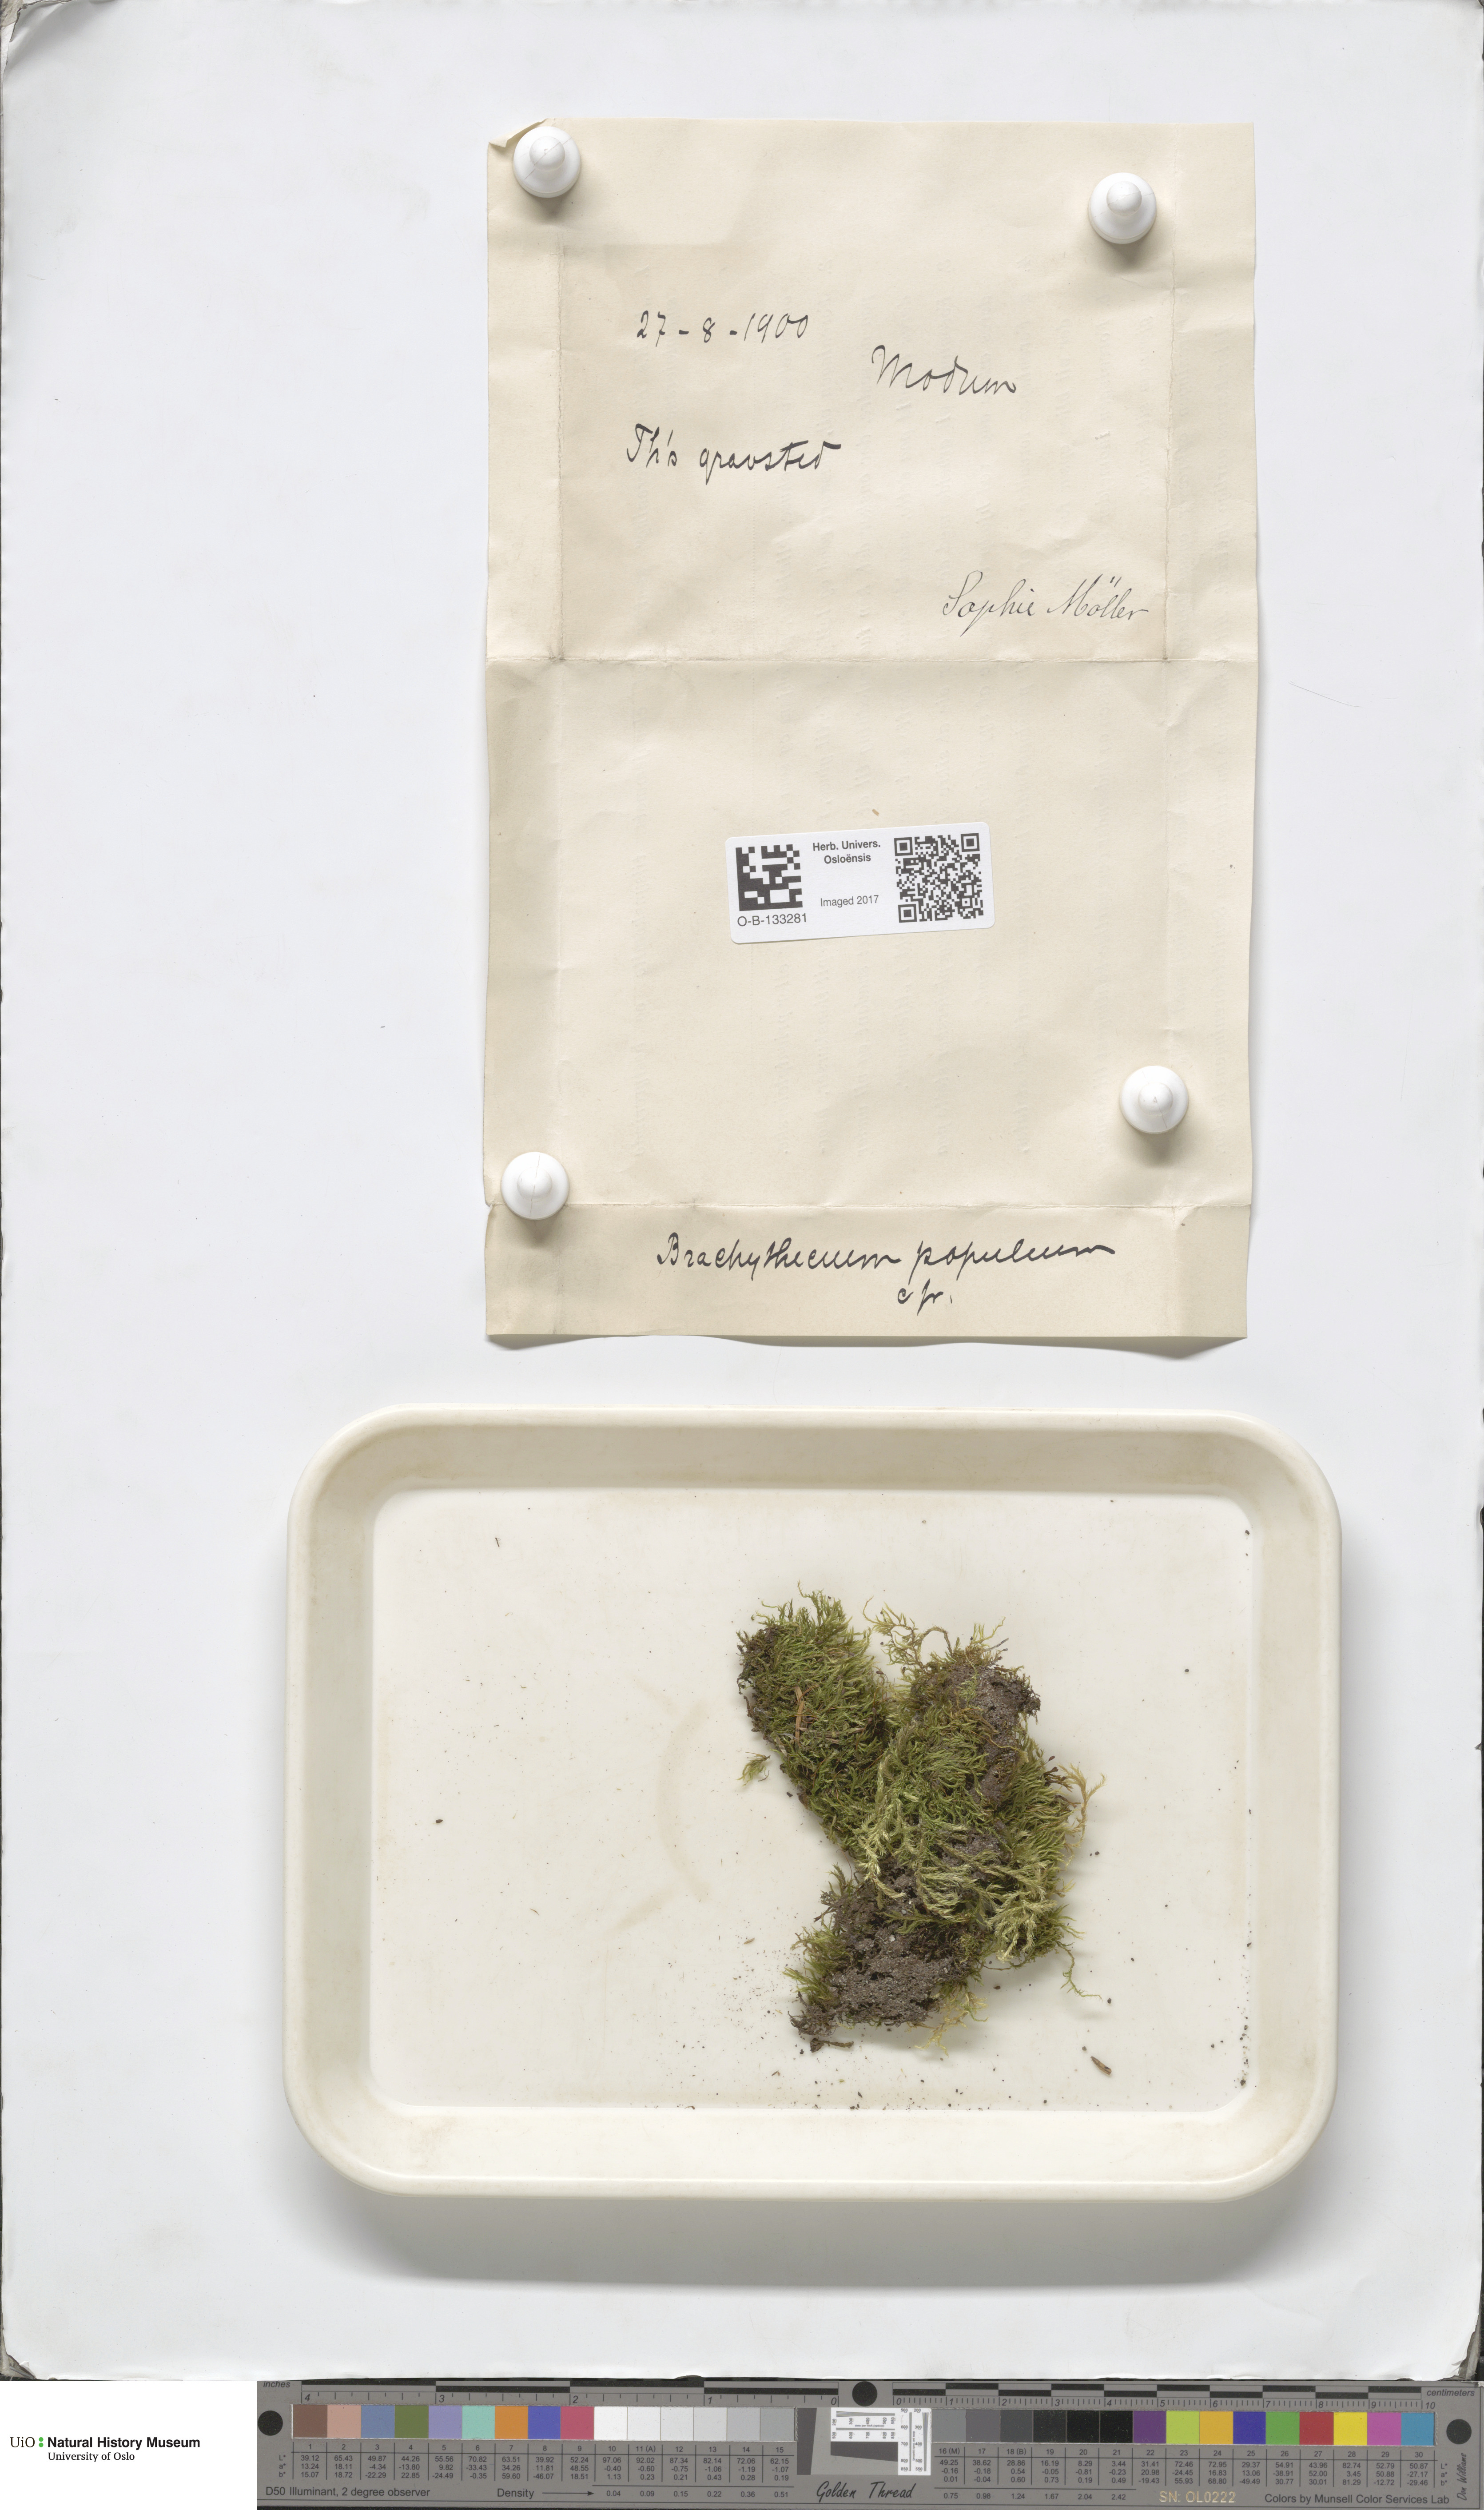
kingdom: Plantae
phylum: Bryophyta
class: Bryopsida
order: Hypnales
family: Brachytheciaceae
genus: Sciuro-hypnum
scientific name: Sciuro-hypnum plumosum
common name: Rusty feather-moss
